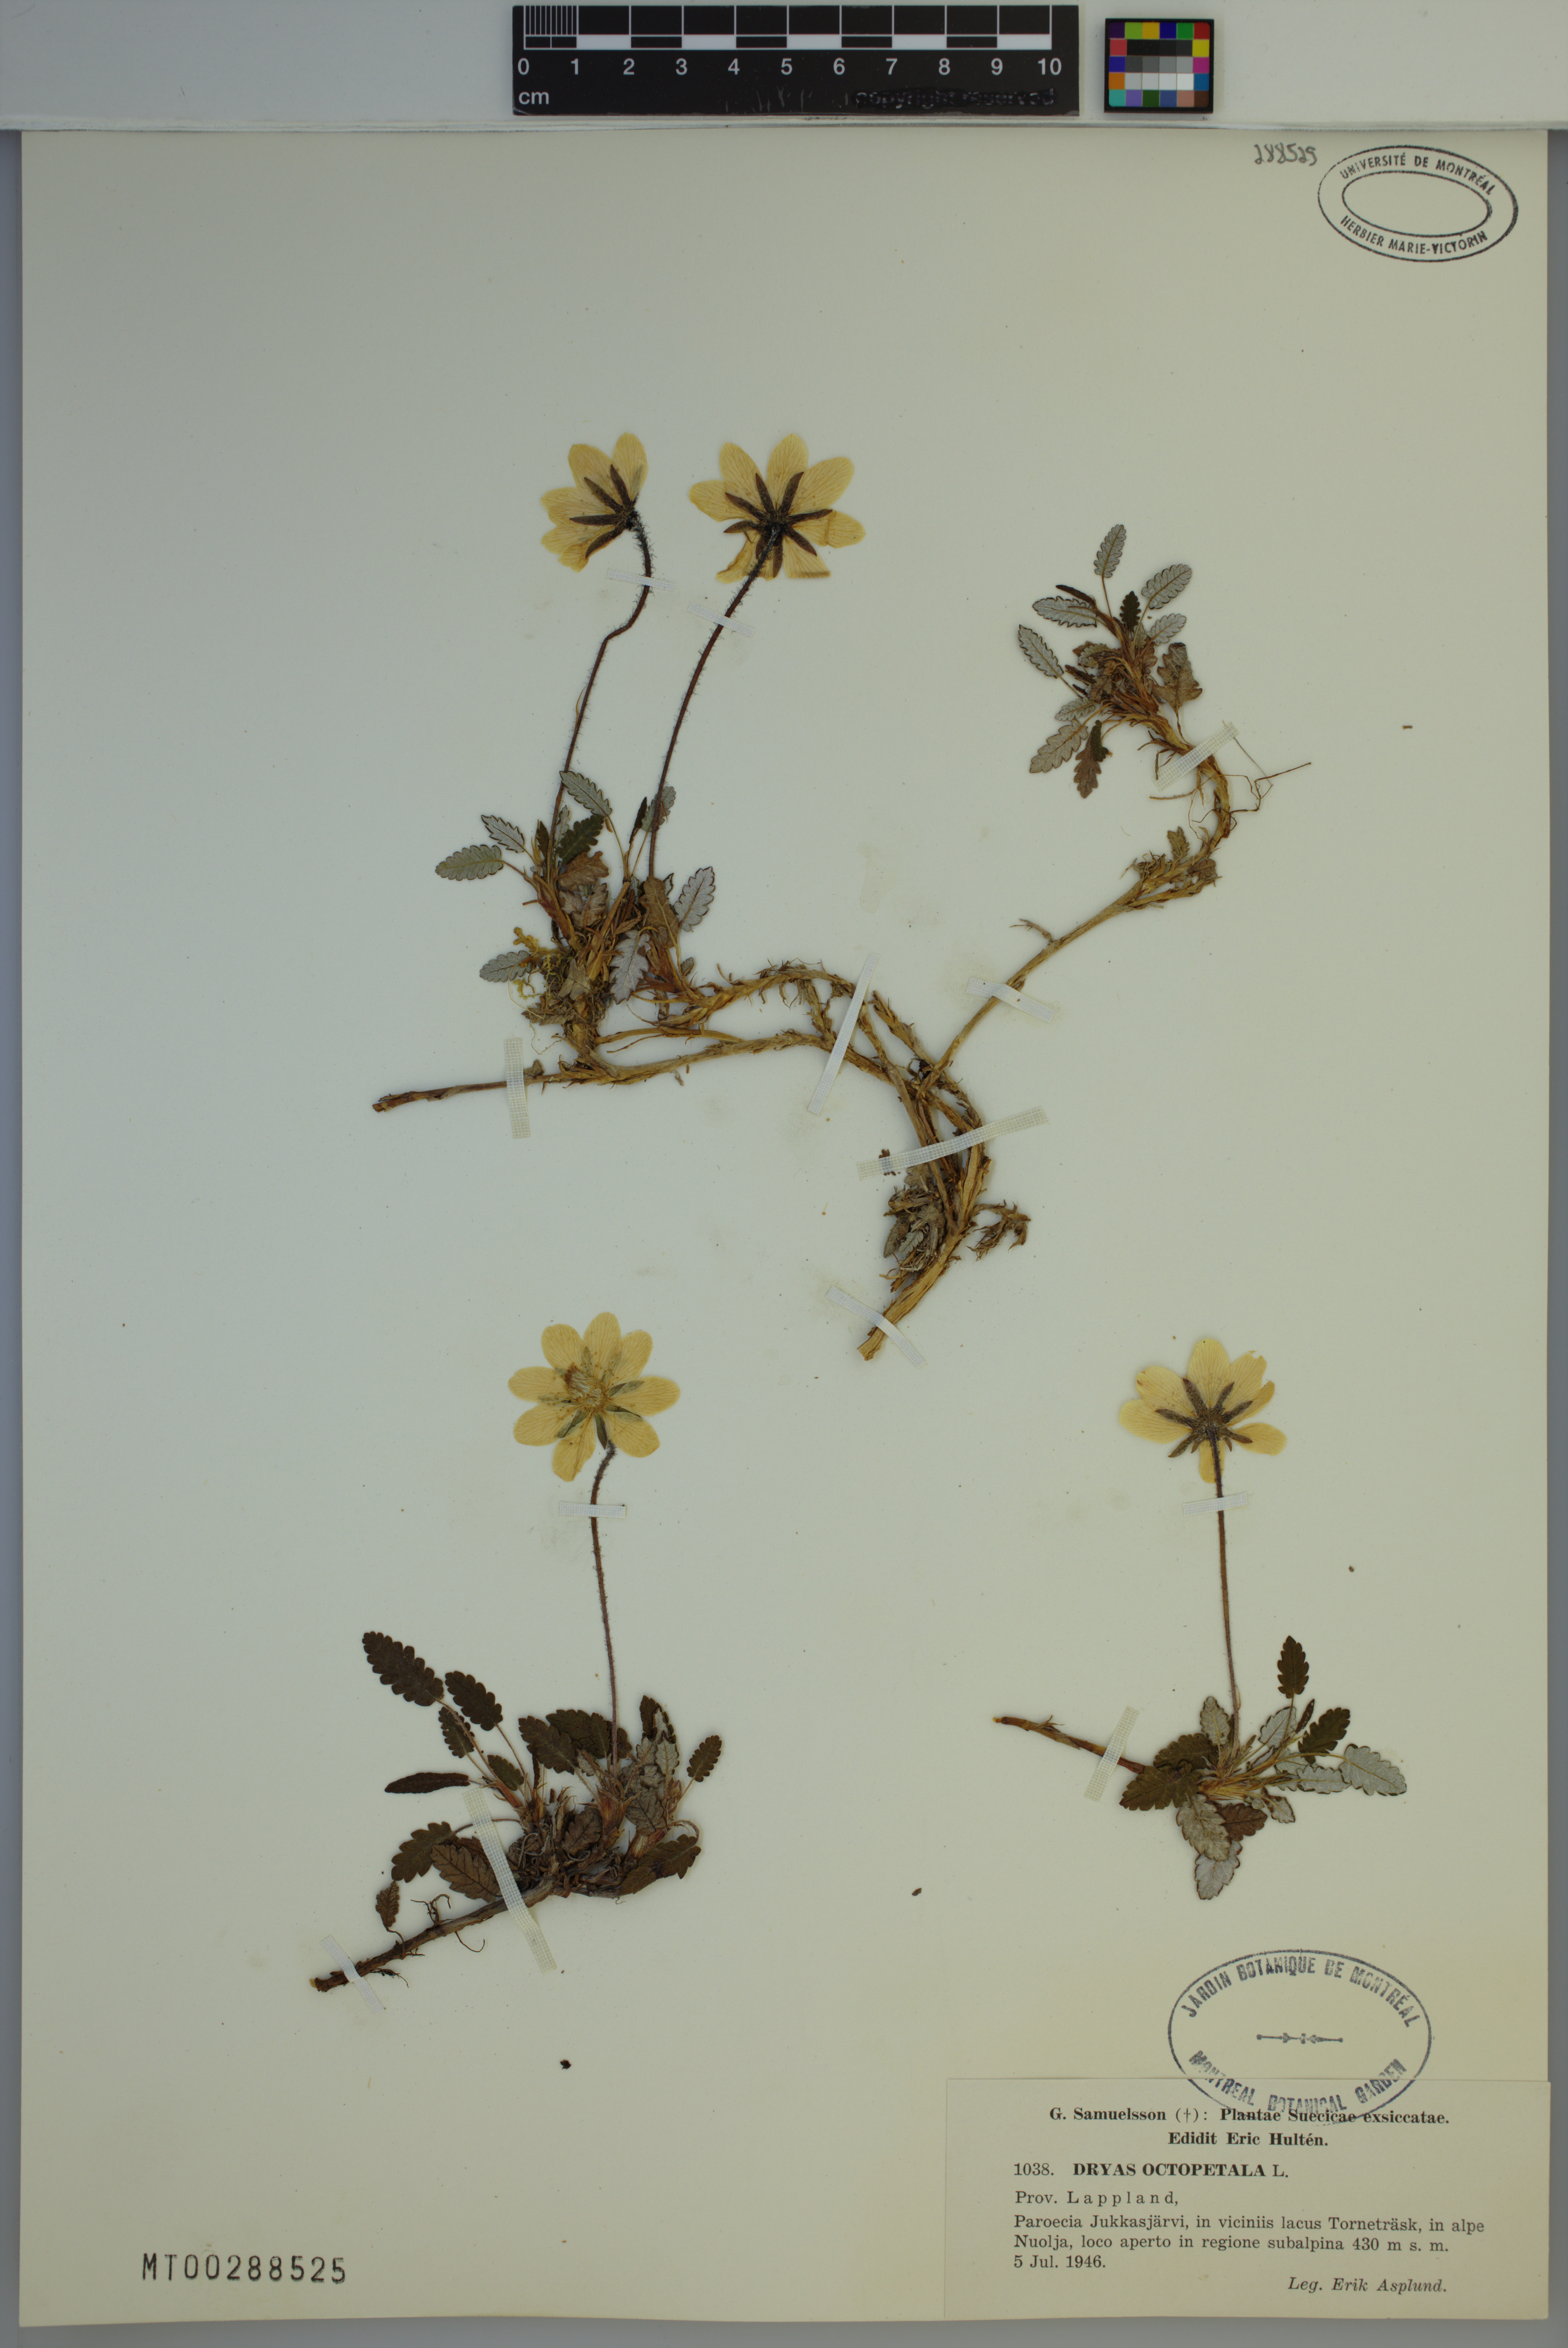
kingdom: Plantae
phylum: Tracheophyta
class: Magnoliopsida
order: Rosales
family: Rosaceae
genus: Dryas
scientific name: Dryas octopetala
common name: Eight-petal mountain-avens
